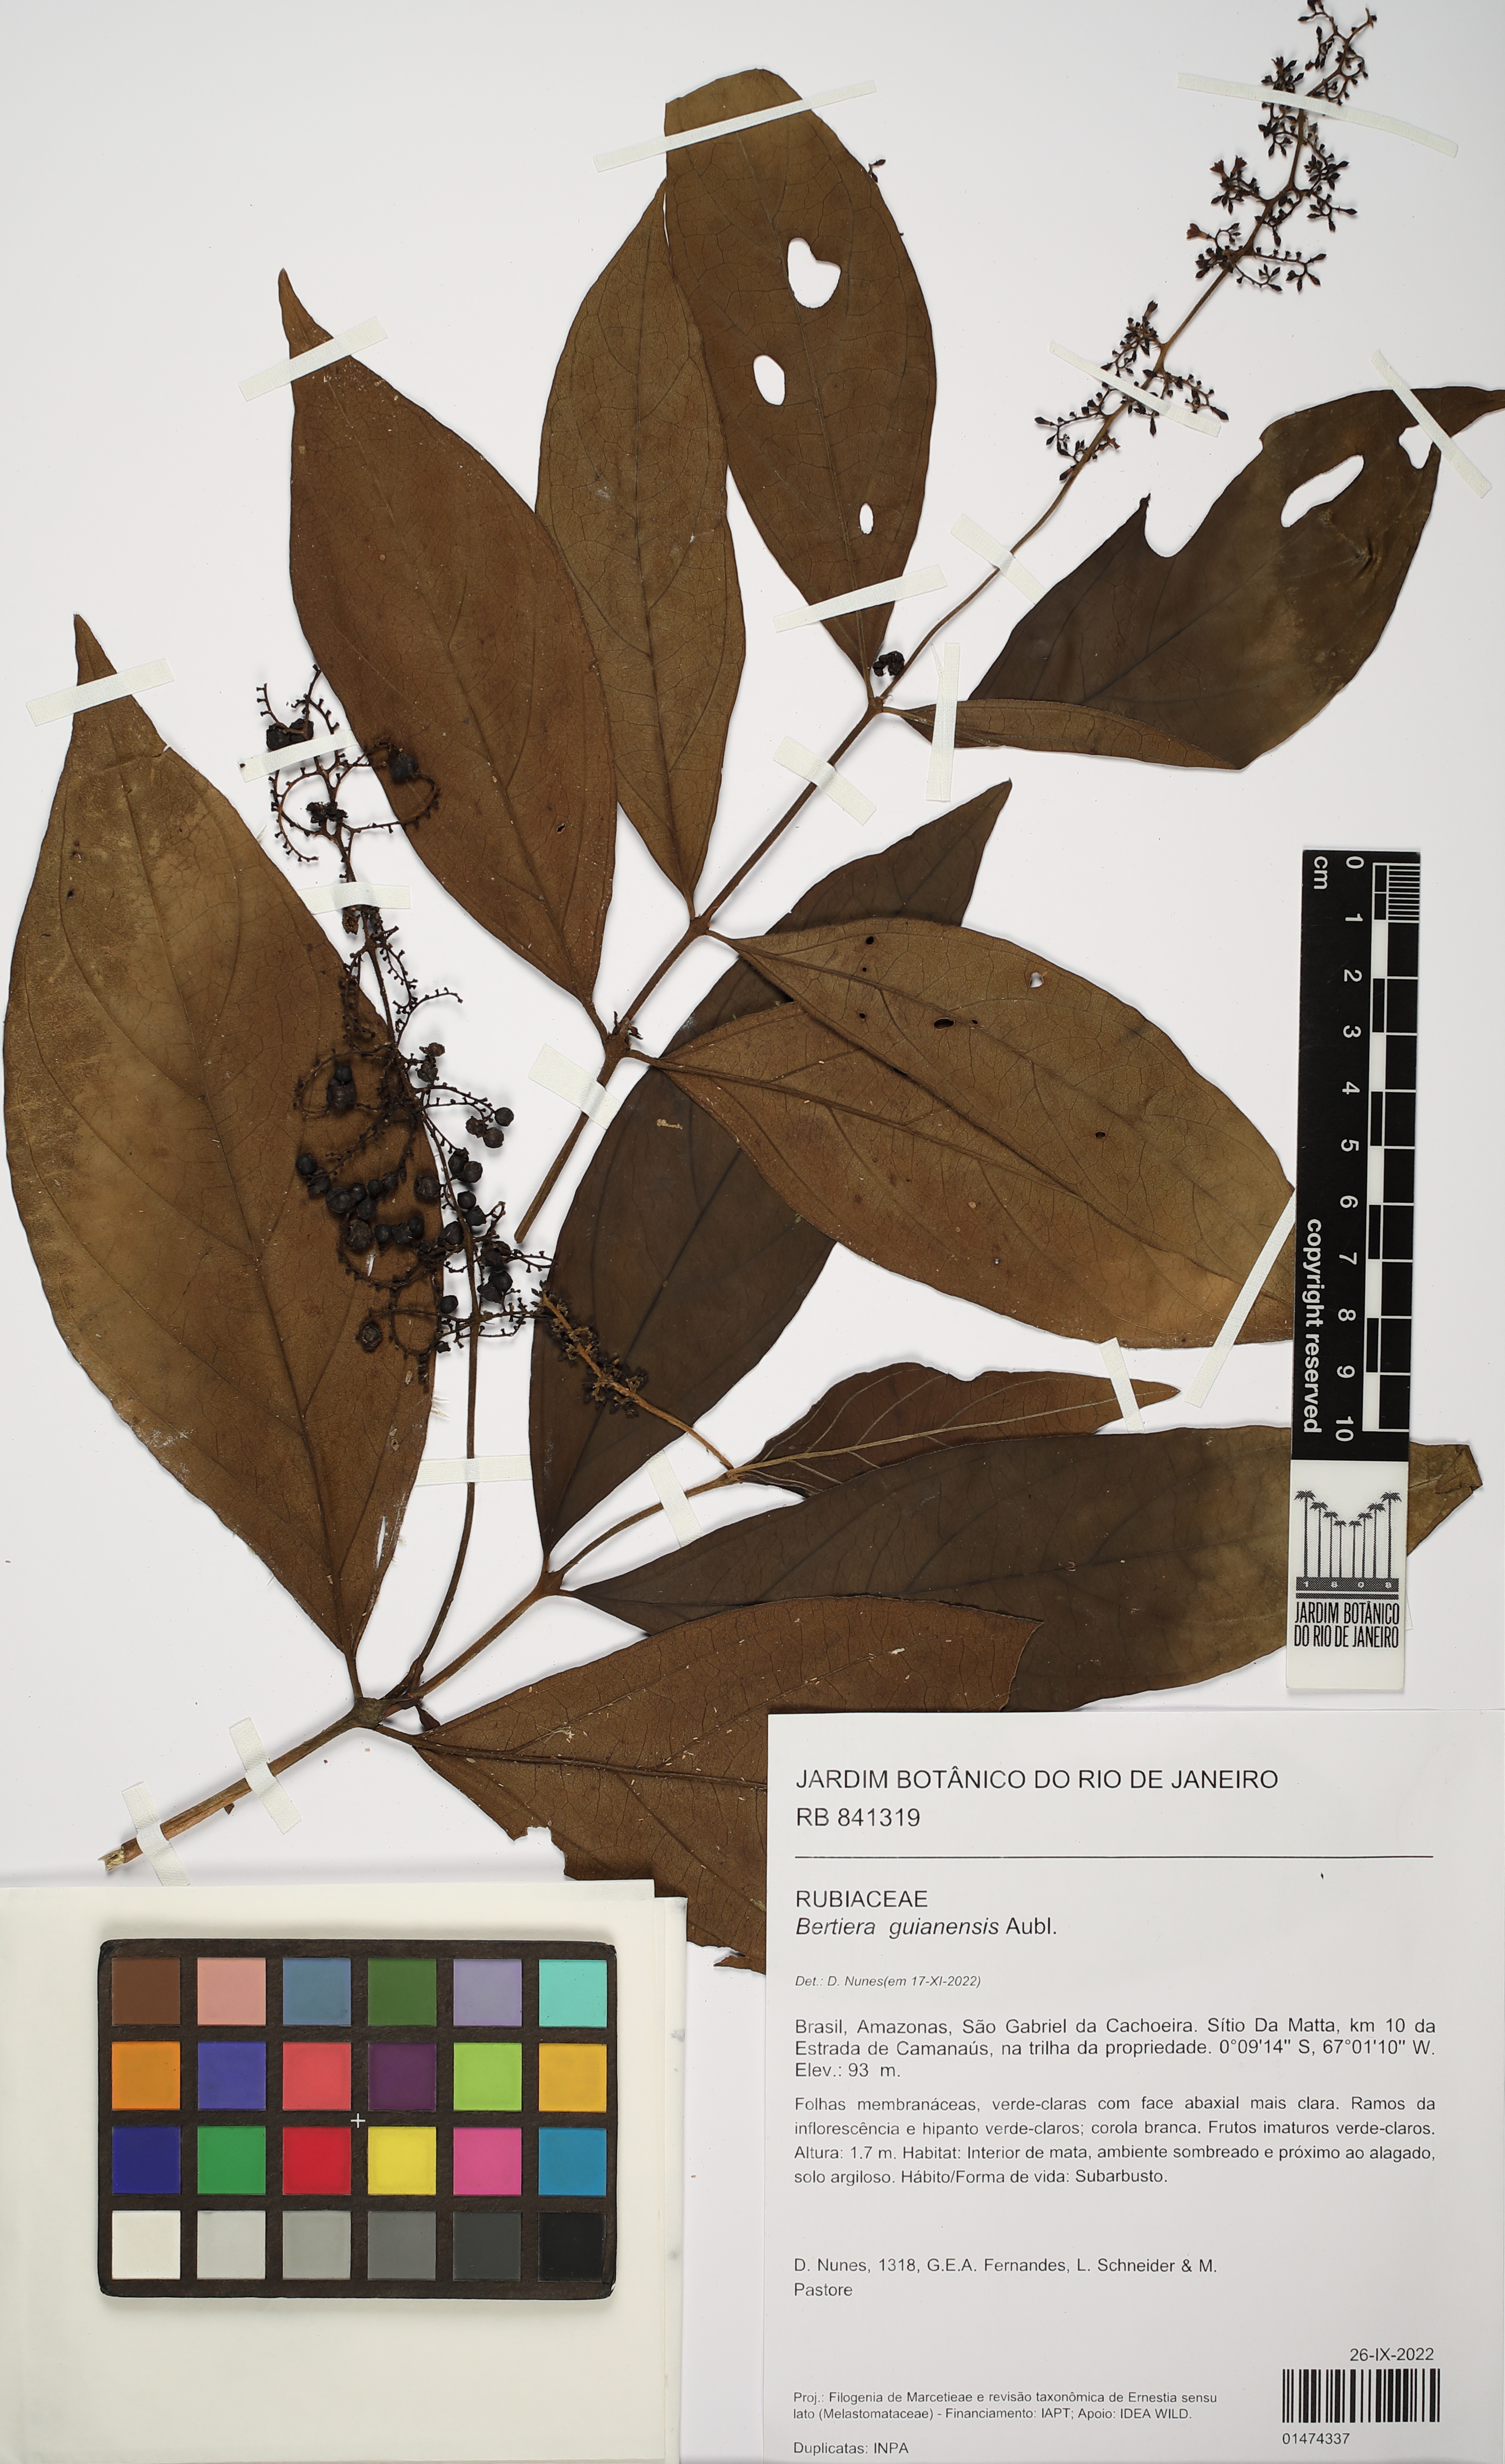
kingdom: Plantae
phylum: Tracheophyta
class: Magnoliopsida
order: Gentianales
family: Rubiaceae
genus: Bertiera
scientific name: Bertiera guianensis
